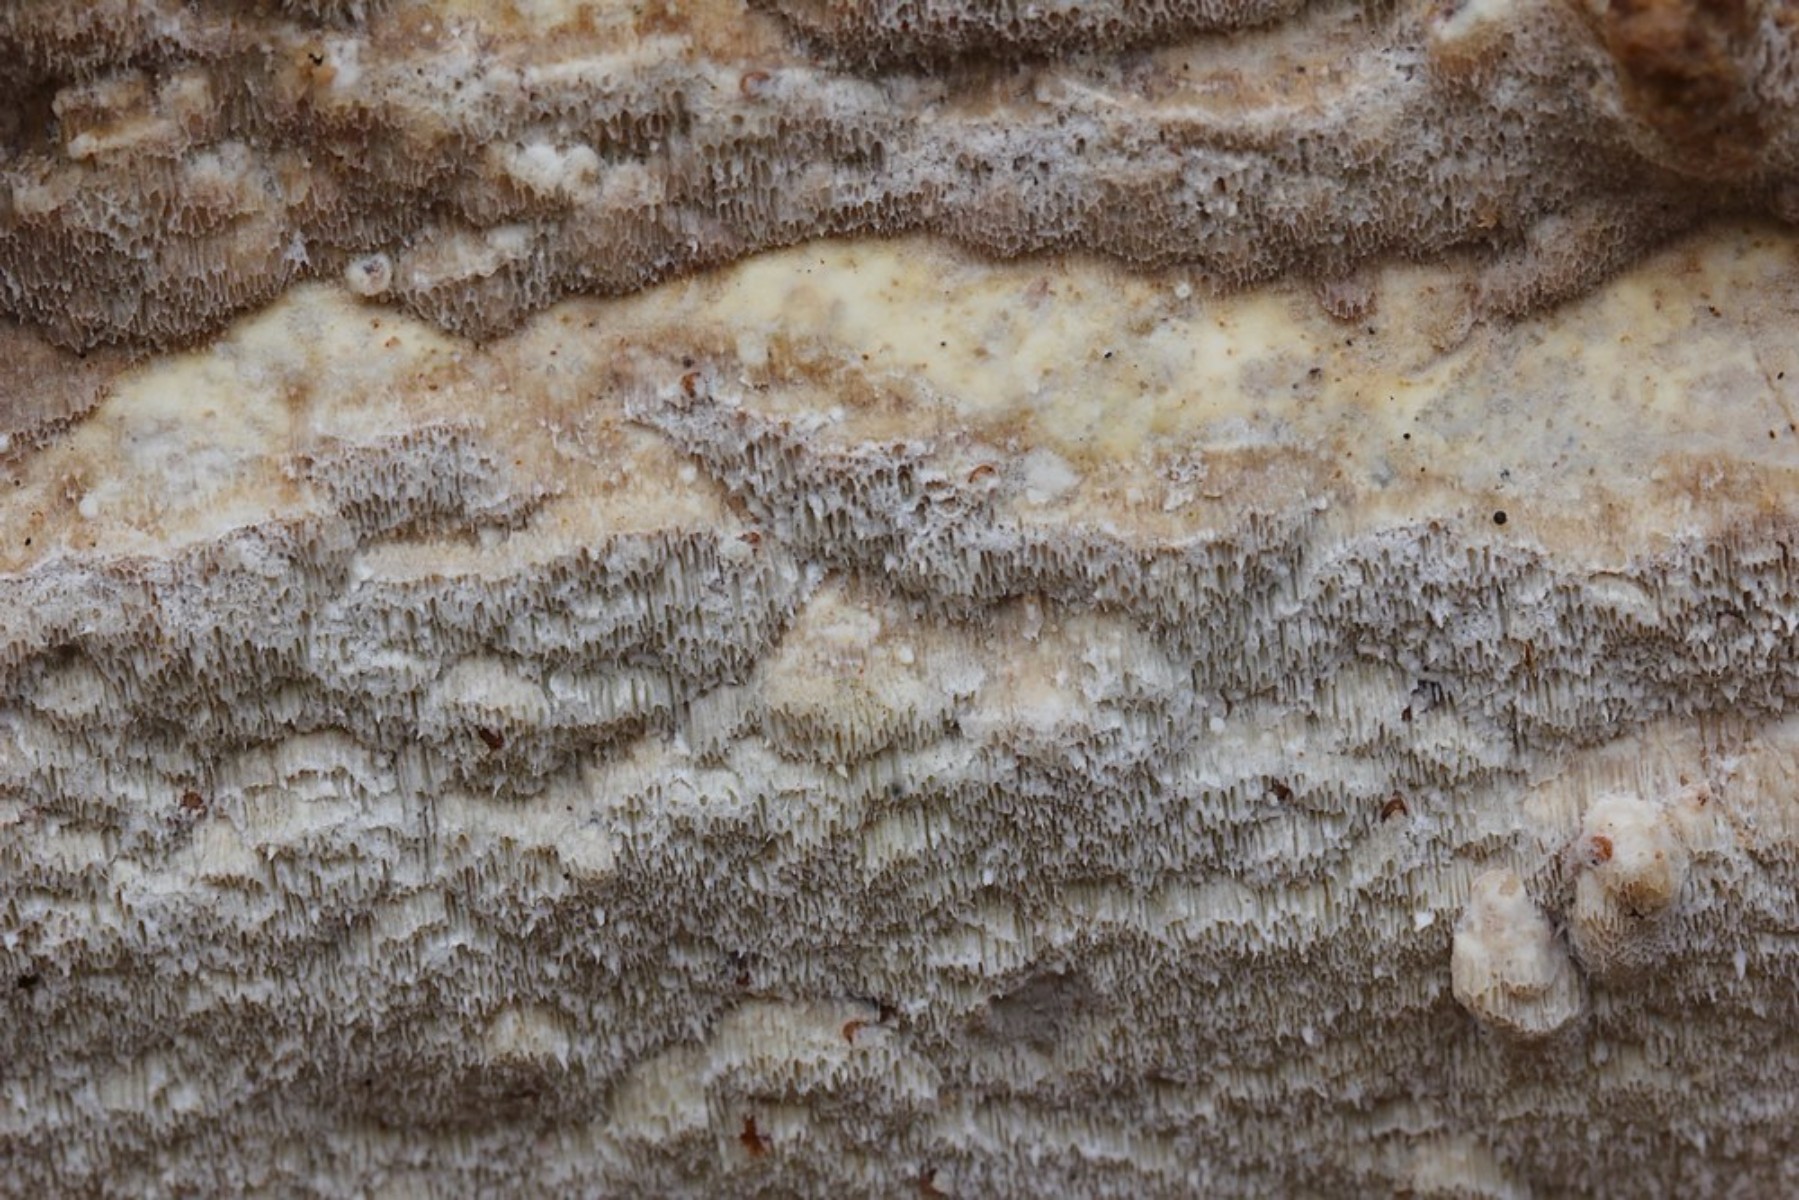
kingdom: Fungi
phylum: Basidiomycota
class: Agaricomycetes
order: Polyporales
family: Irpicaceae
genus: Gloeoporus
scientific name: Gloeoporus pannocinctus
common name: grøngul foldporesvamp
